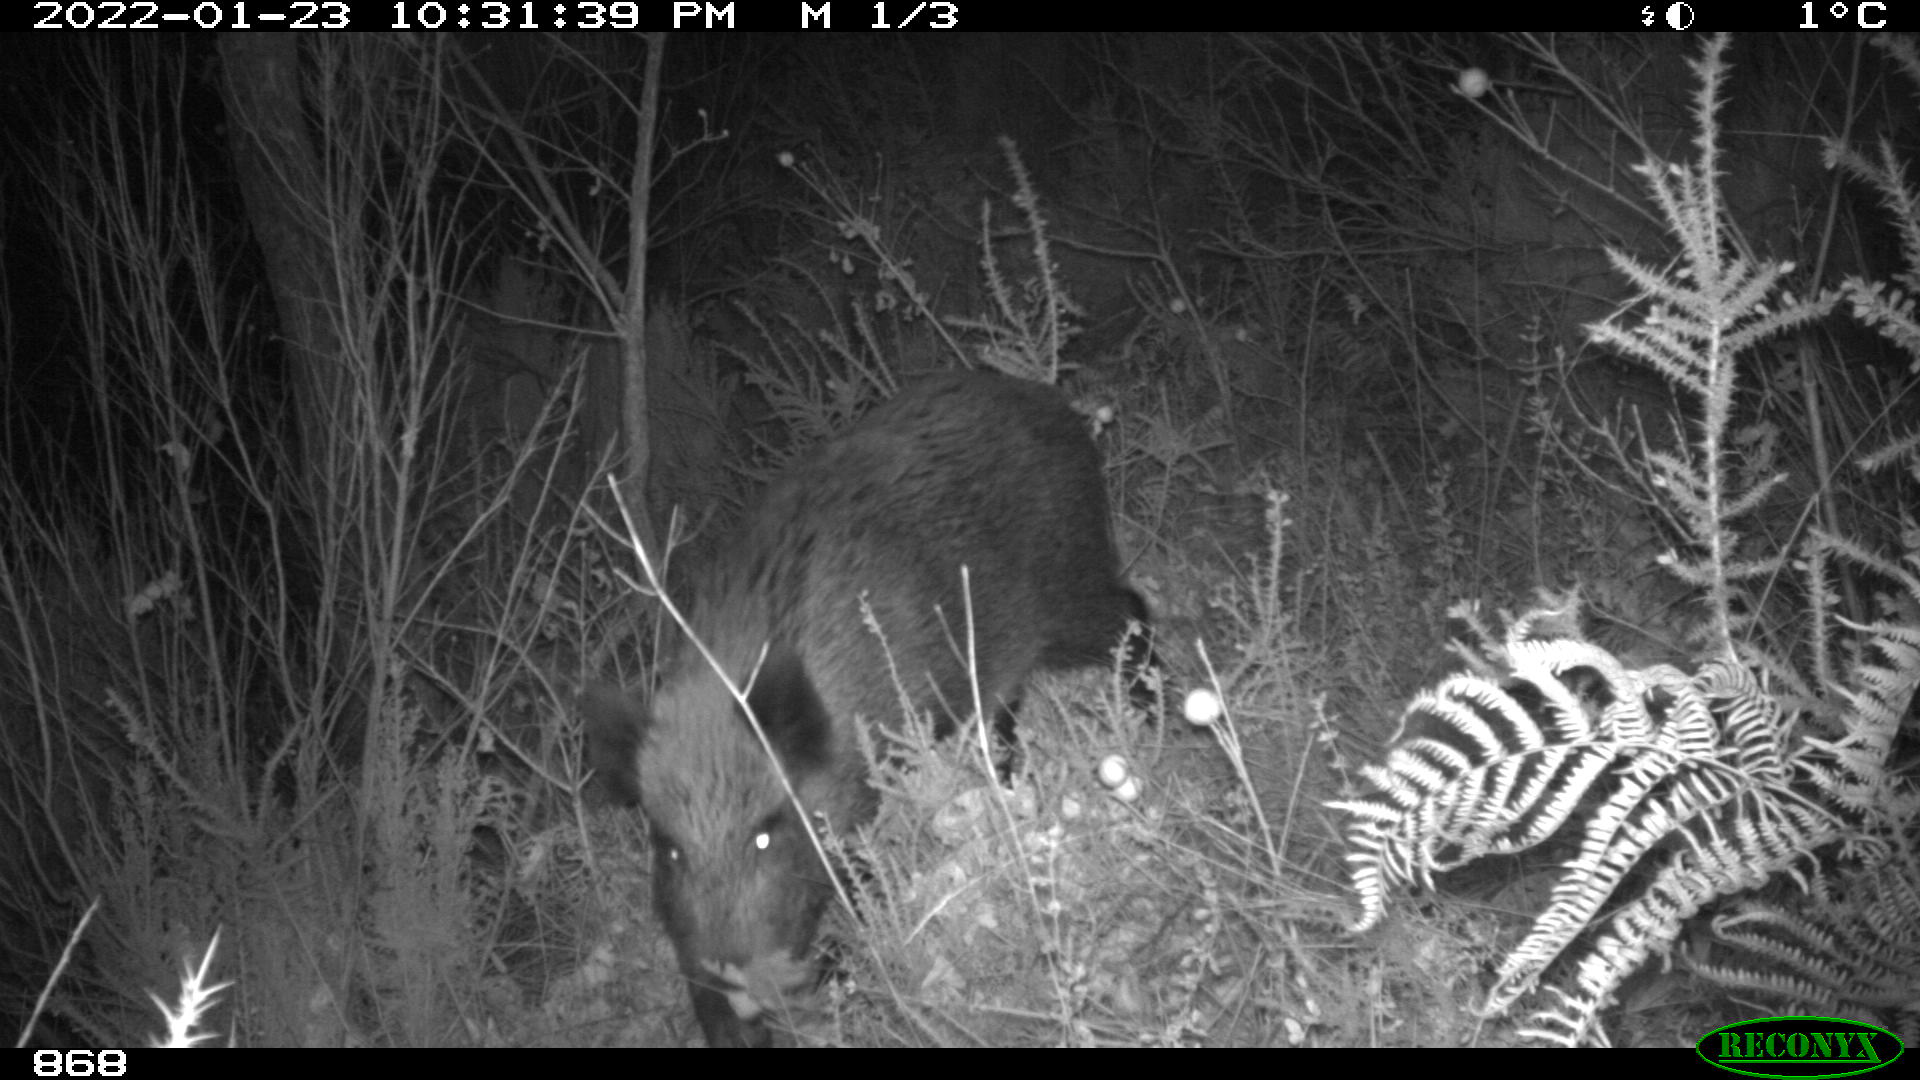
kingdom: Animalia
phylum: Chordata
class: Mammalia
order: Artiodactyla
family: Suidae
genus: Sus
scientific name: Sus scrofa
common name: Wild boar
